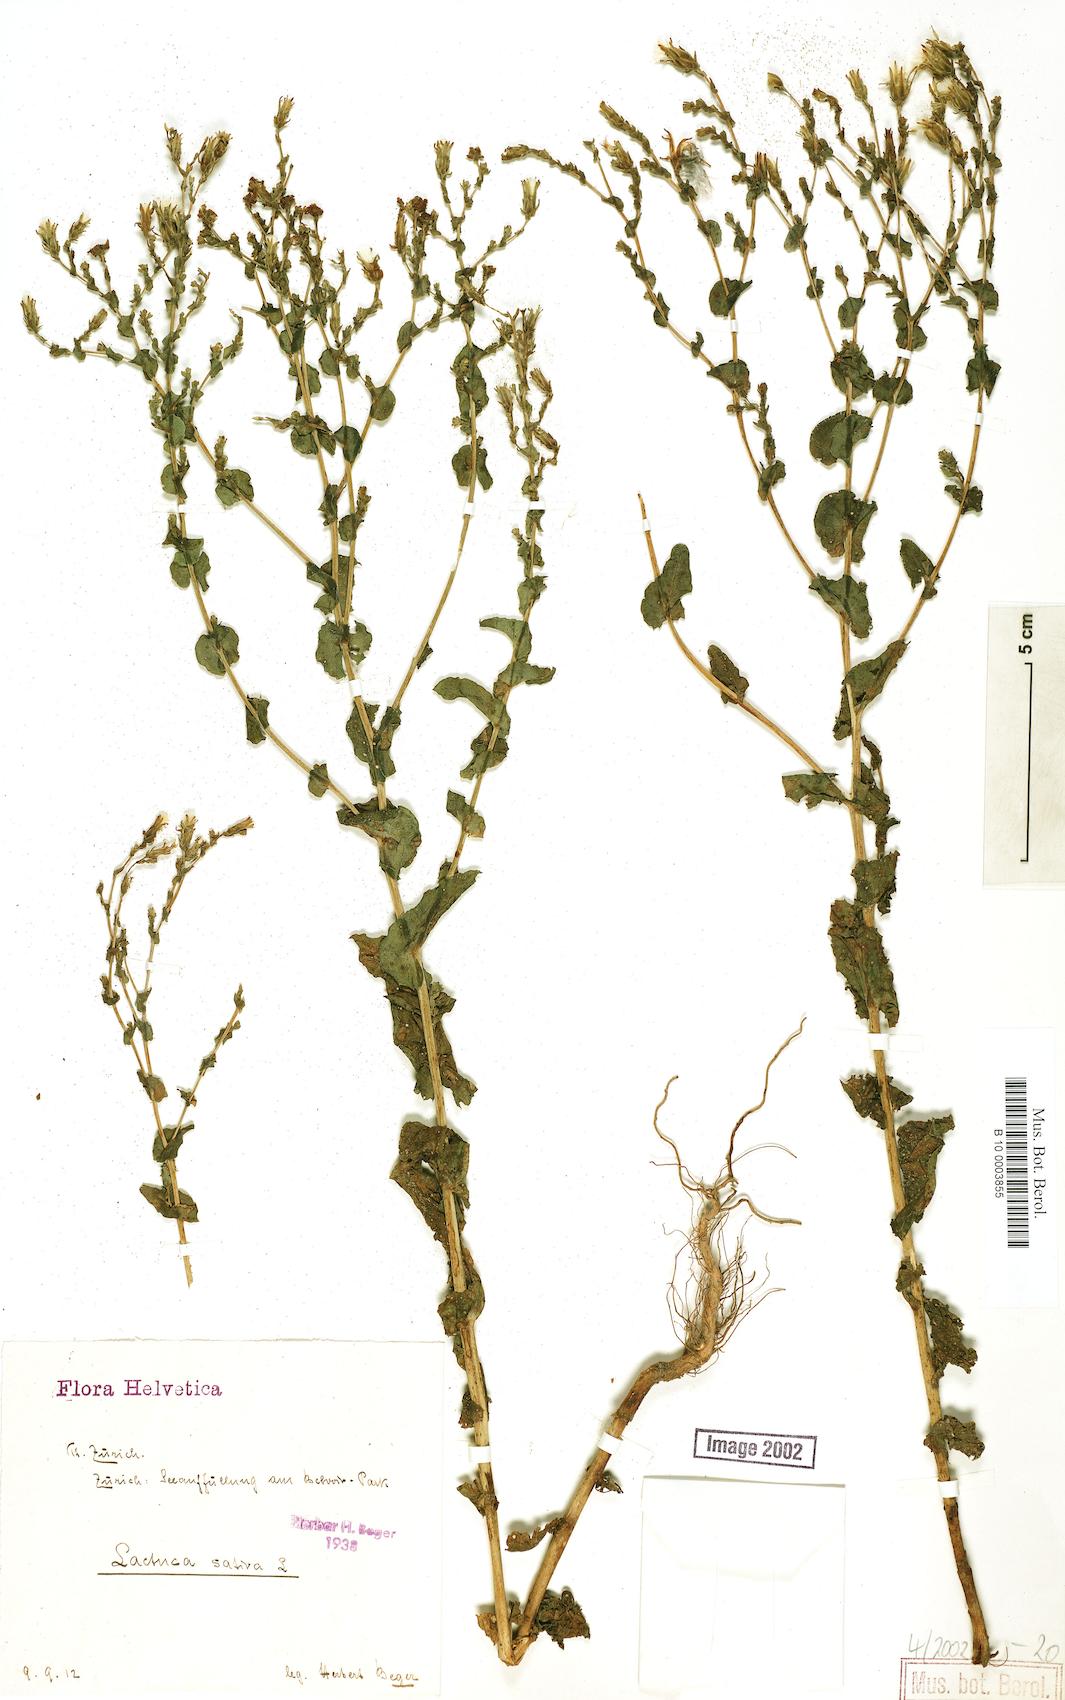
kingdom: Plantae
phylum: Tracheophyta
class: Magnoliopsida
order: Asterales
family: Asteraceae
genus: Lactuca
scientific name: Lactuca sativa
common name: Garden lettuce
